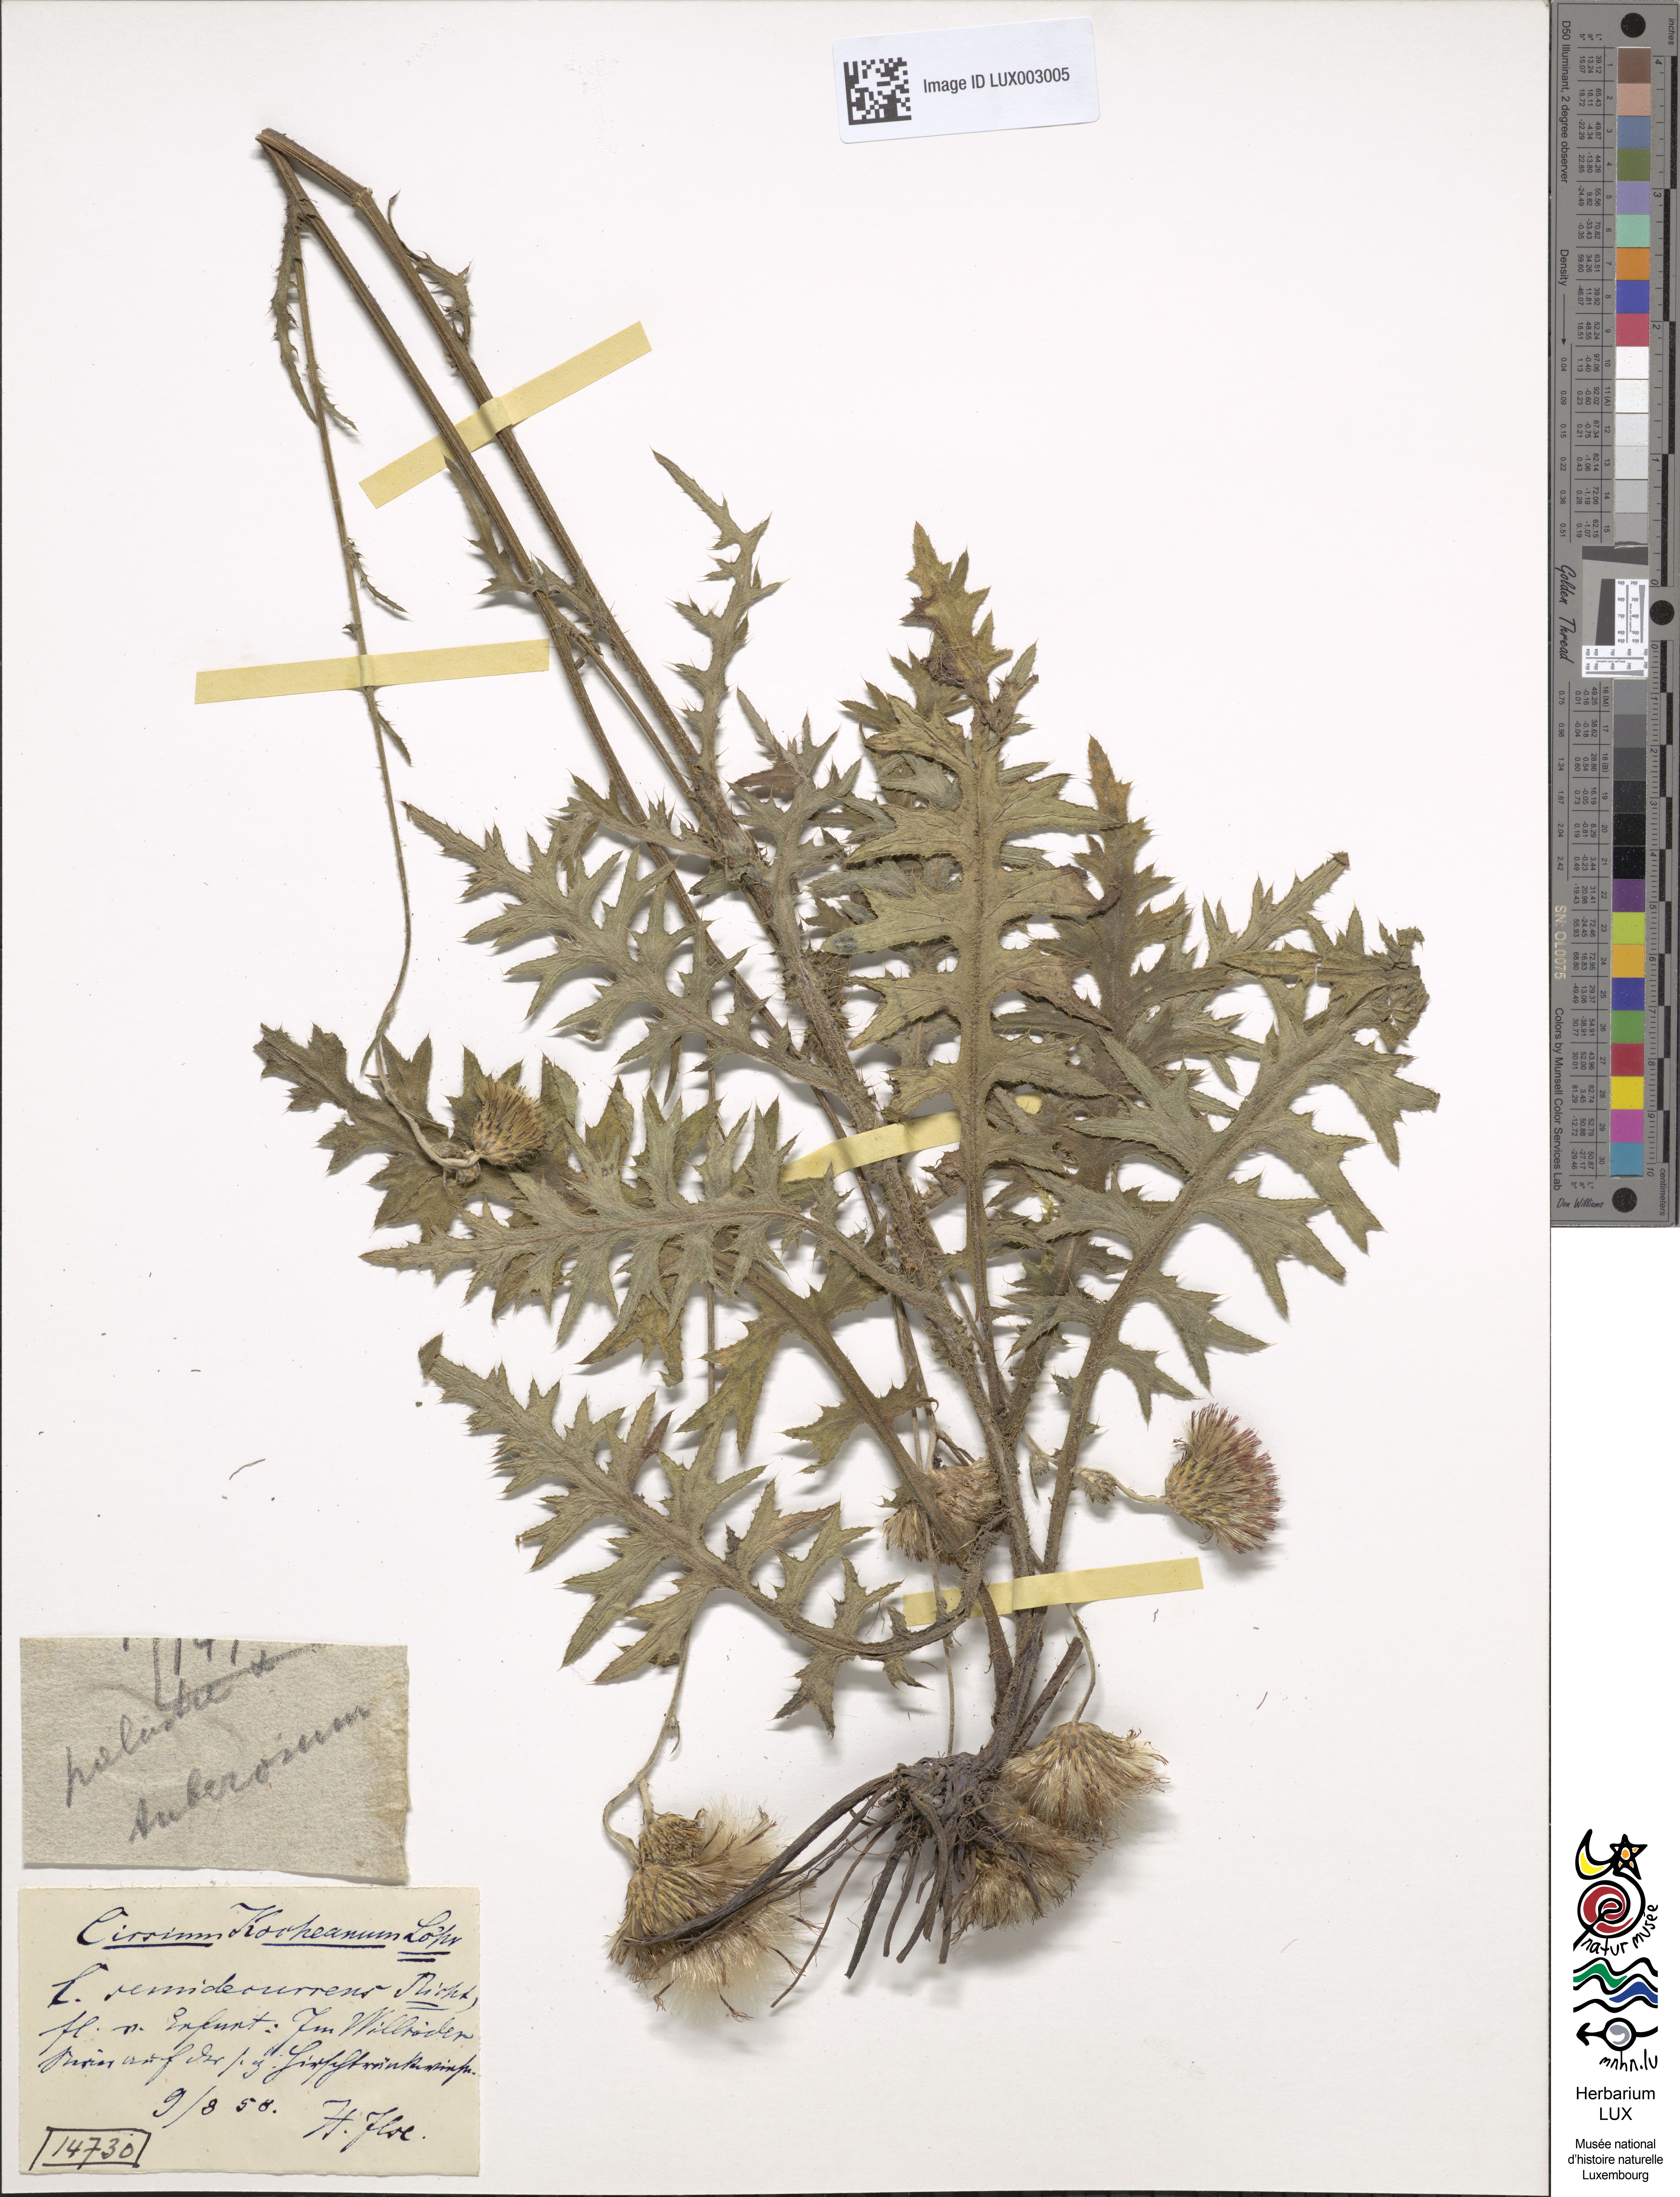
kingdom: Plantae
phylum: Tracheophyta
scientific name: Tracheophyta
